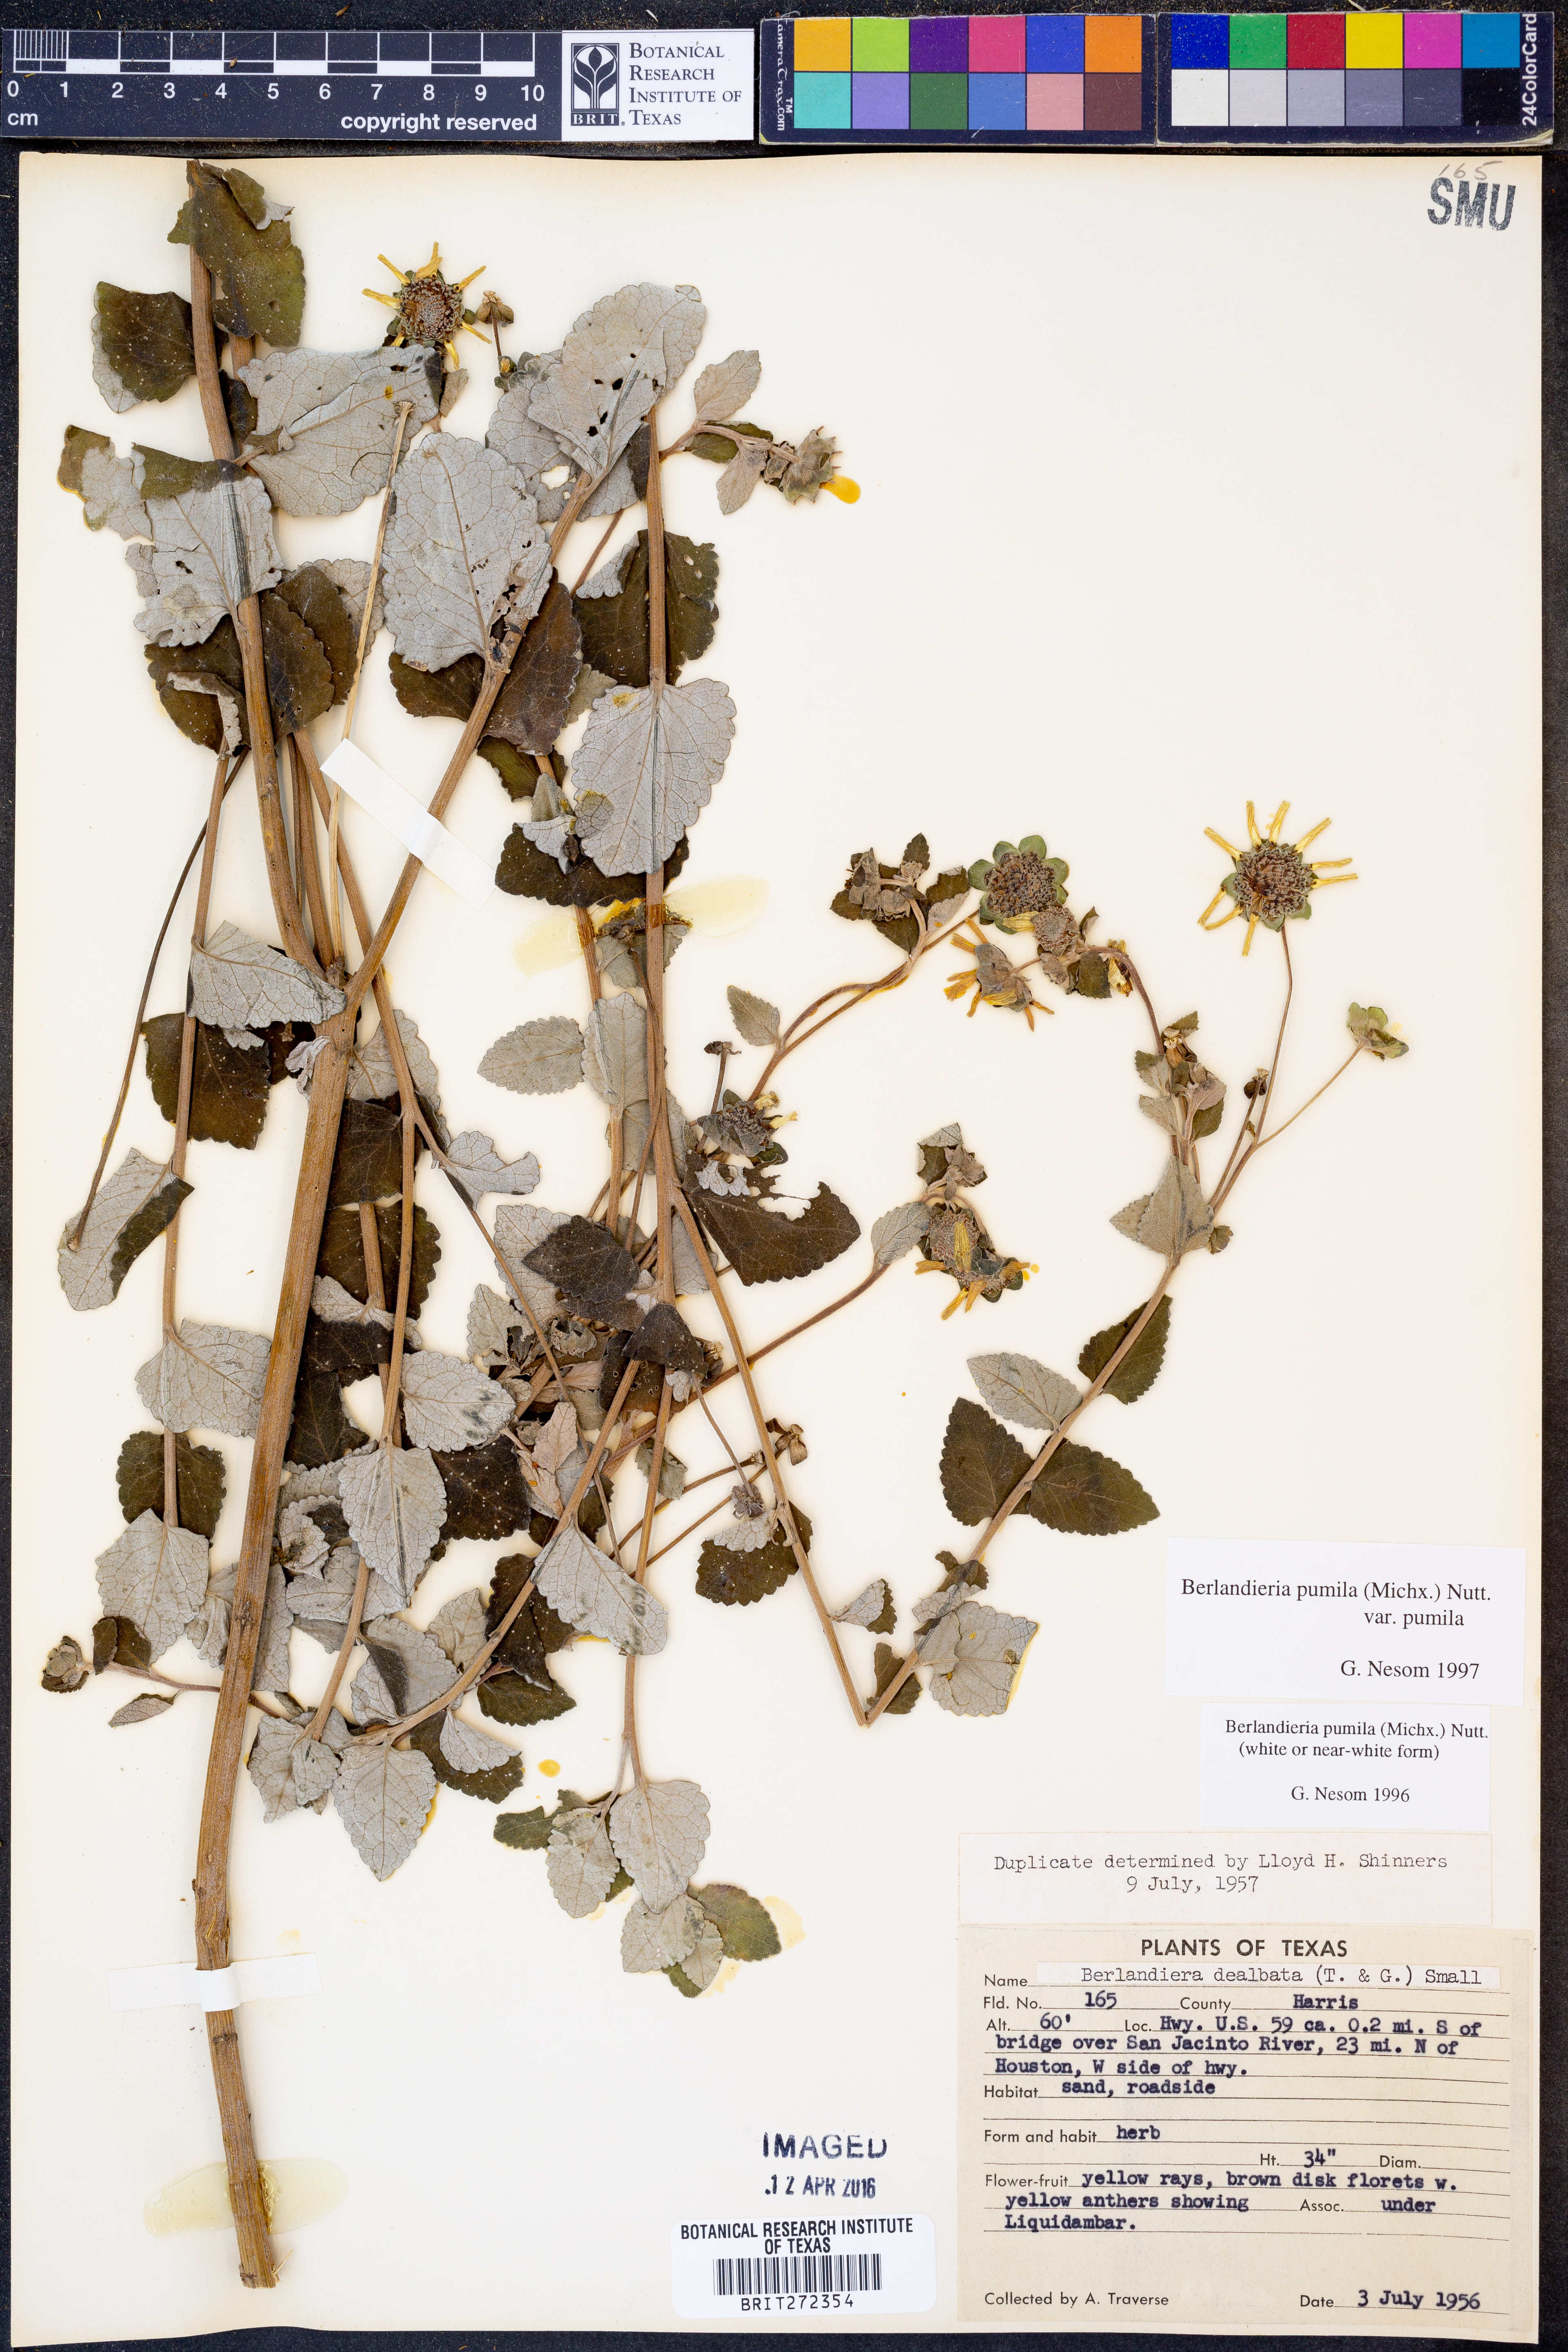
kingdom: Plantae
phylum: Tracheophyta
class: Magnoliopsida
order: Asterales
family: Asteraceae
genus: Berlandiera
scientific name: Berlandiera pumila
